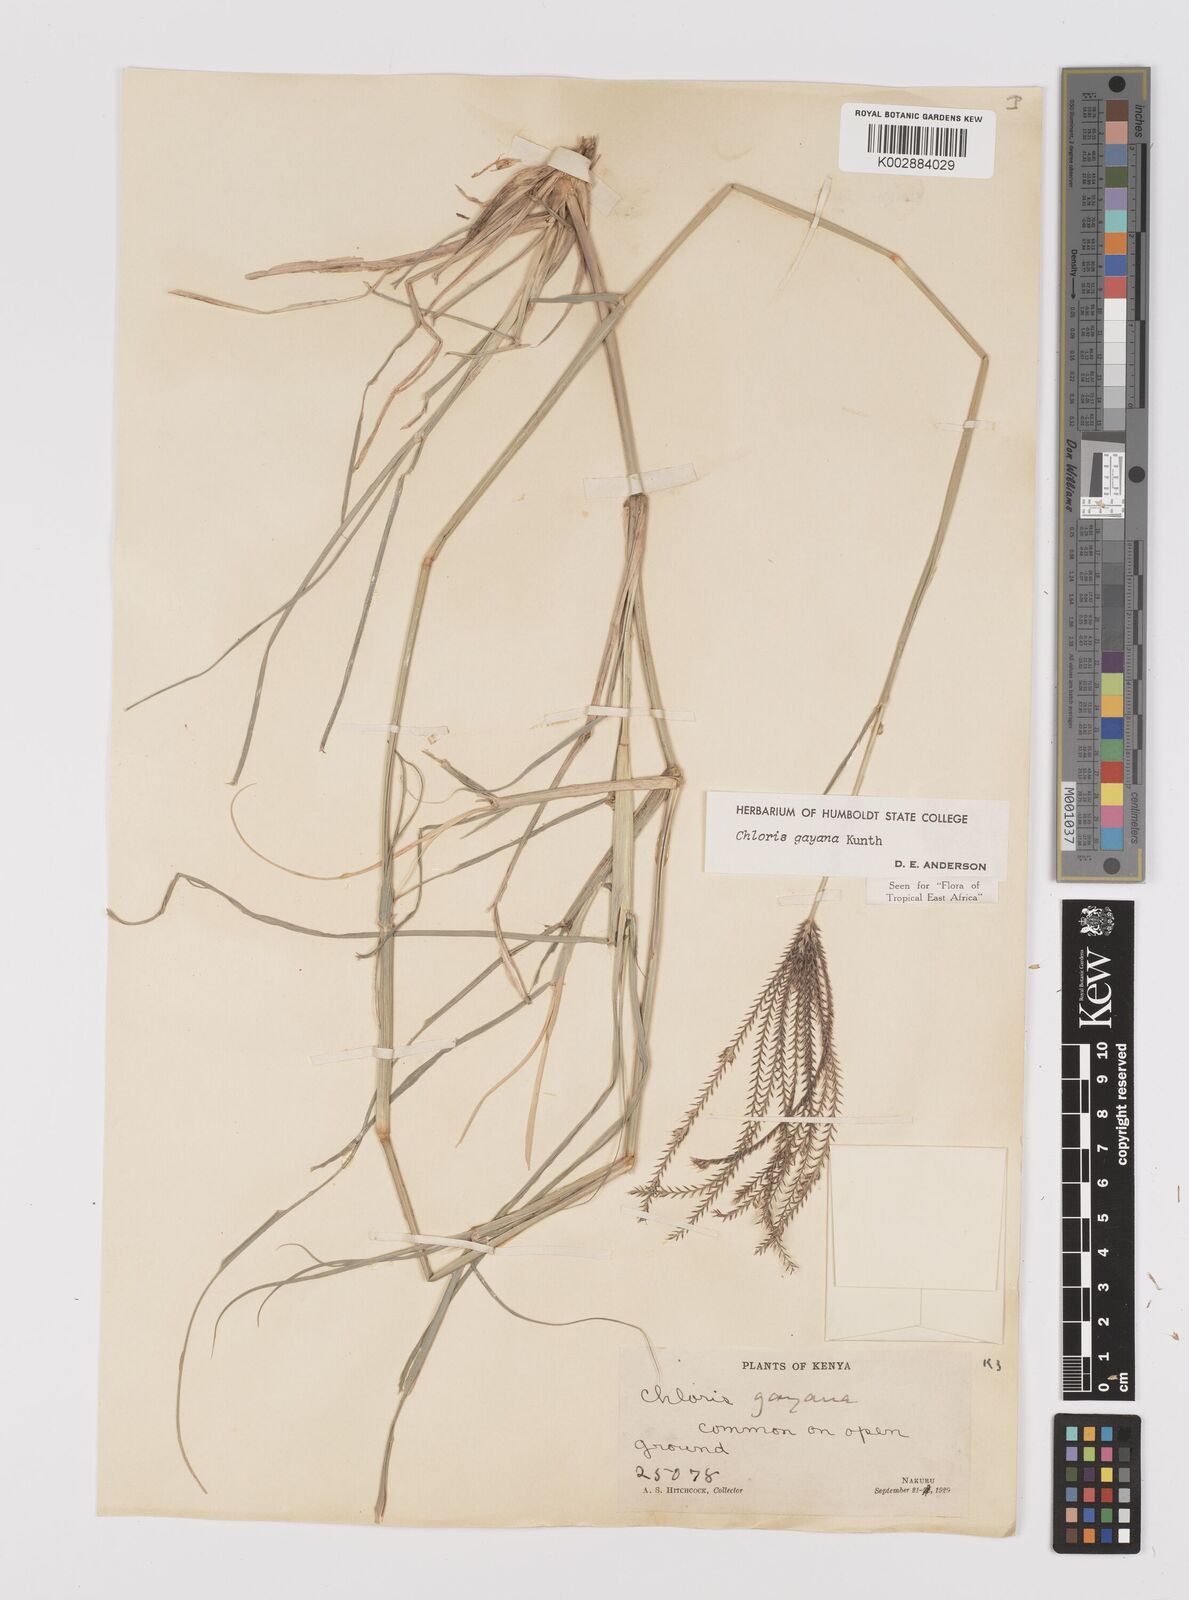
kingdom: Plantae
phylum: Tracheophyta
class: Liliopsida
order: Poales
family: Poaceae
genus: Chloris
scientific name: Chloris gayana
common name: Rhodes grass
